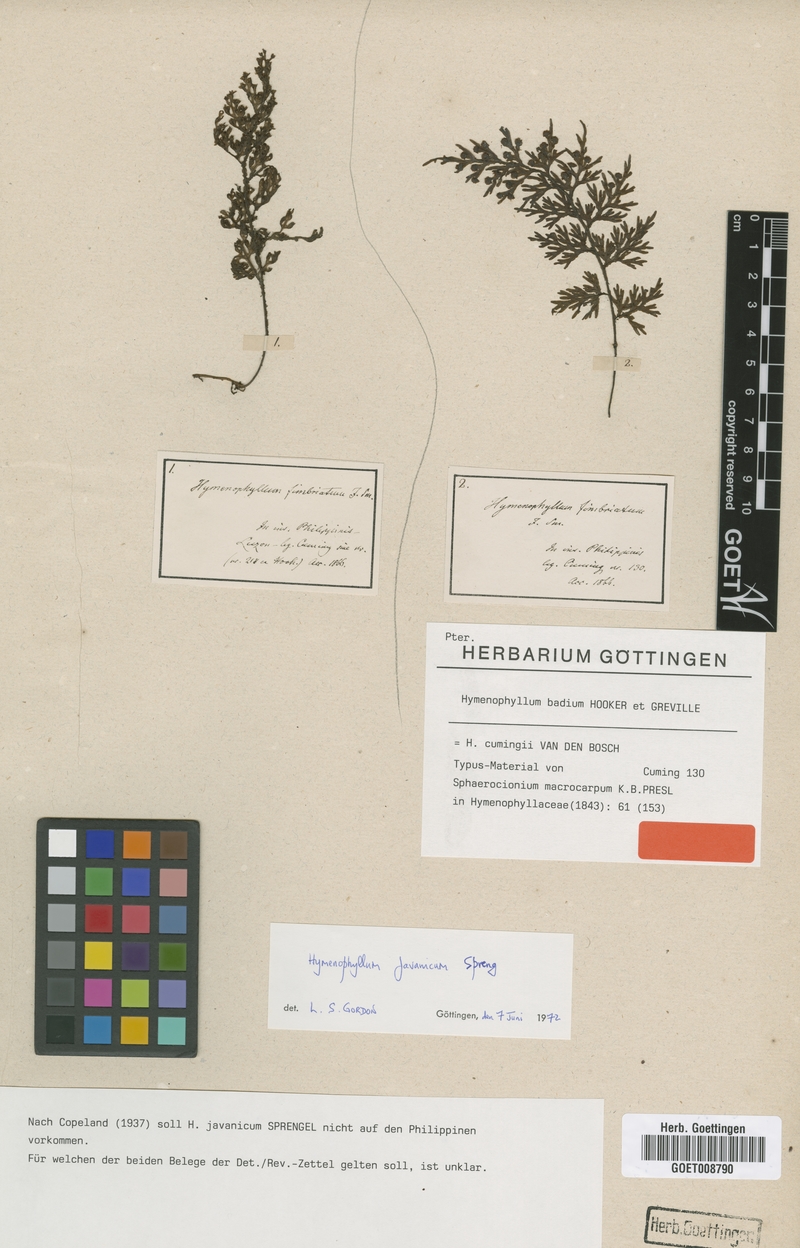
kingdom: Plantae
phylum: Tracheophyta
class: Polypodiopsida
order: Hymenophyllales
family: Hymenophyllaceae
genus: Hymenophyllum
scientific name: Hymenophyllum badium
